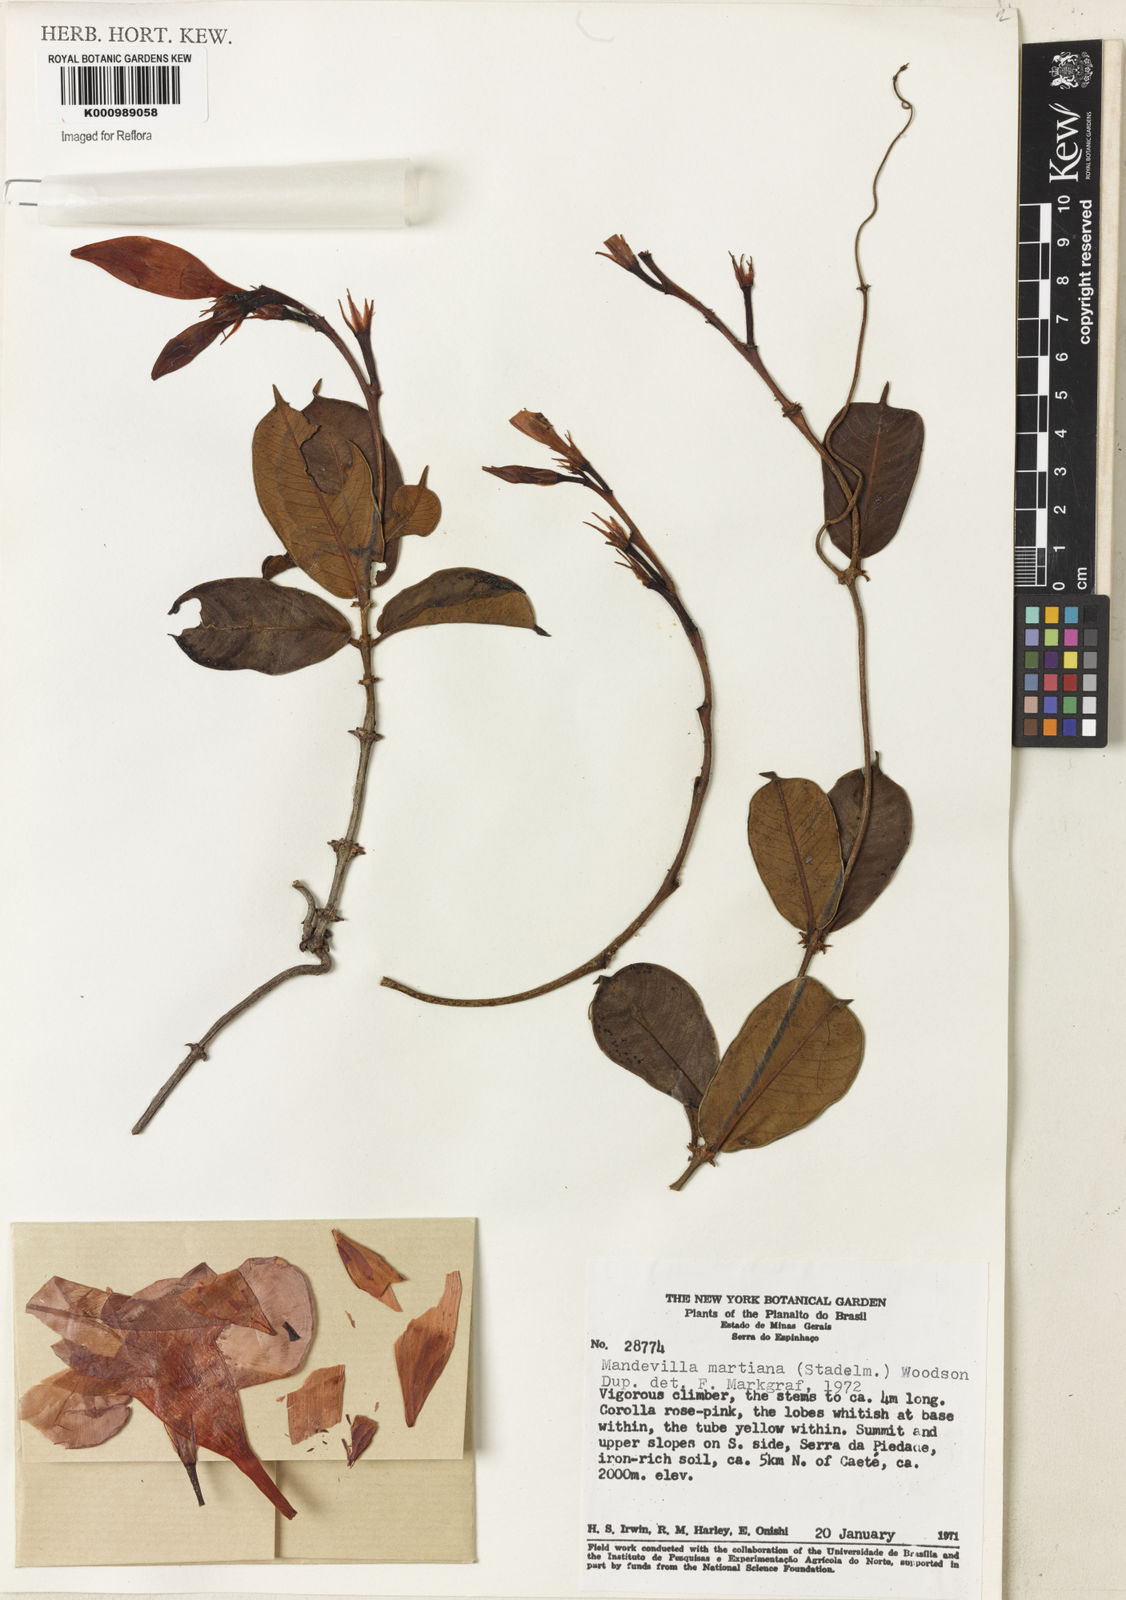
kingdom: Plantae
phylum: Tracheophyta
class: Magnoliopsida
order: Gentianales
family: Apocynaceae
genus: Mandevilla
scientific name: Mandevilla martiana
